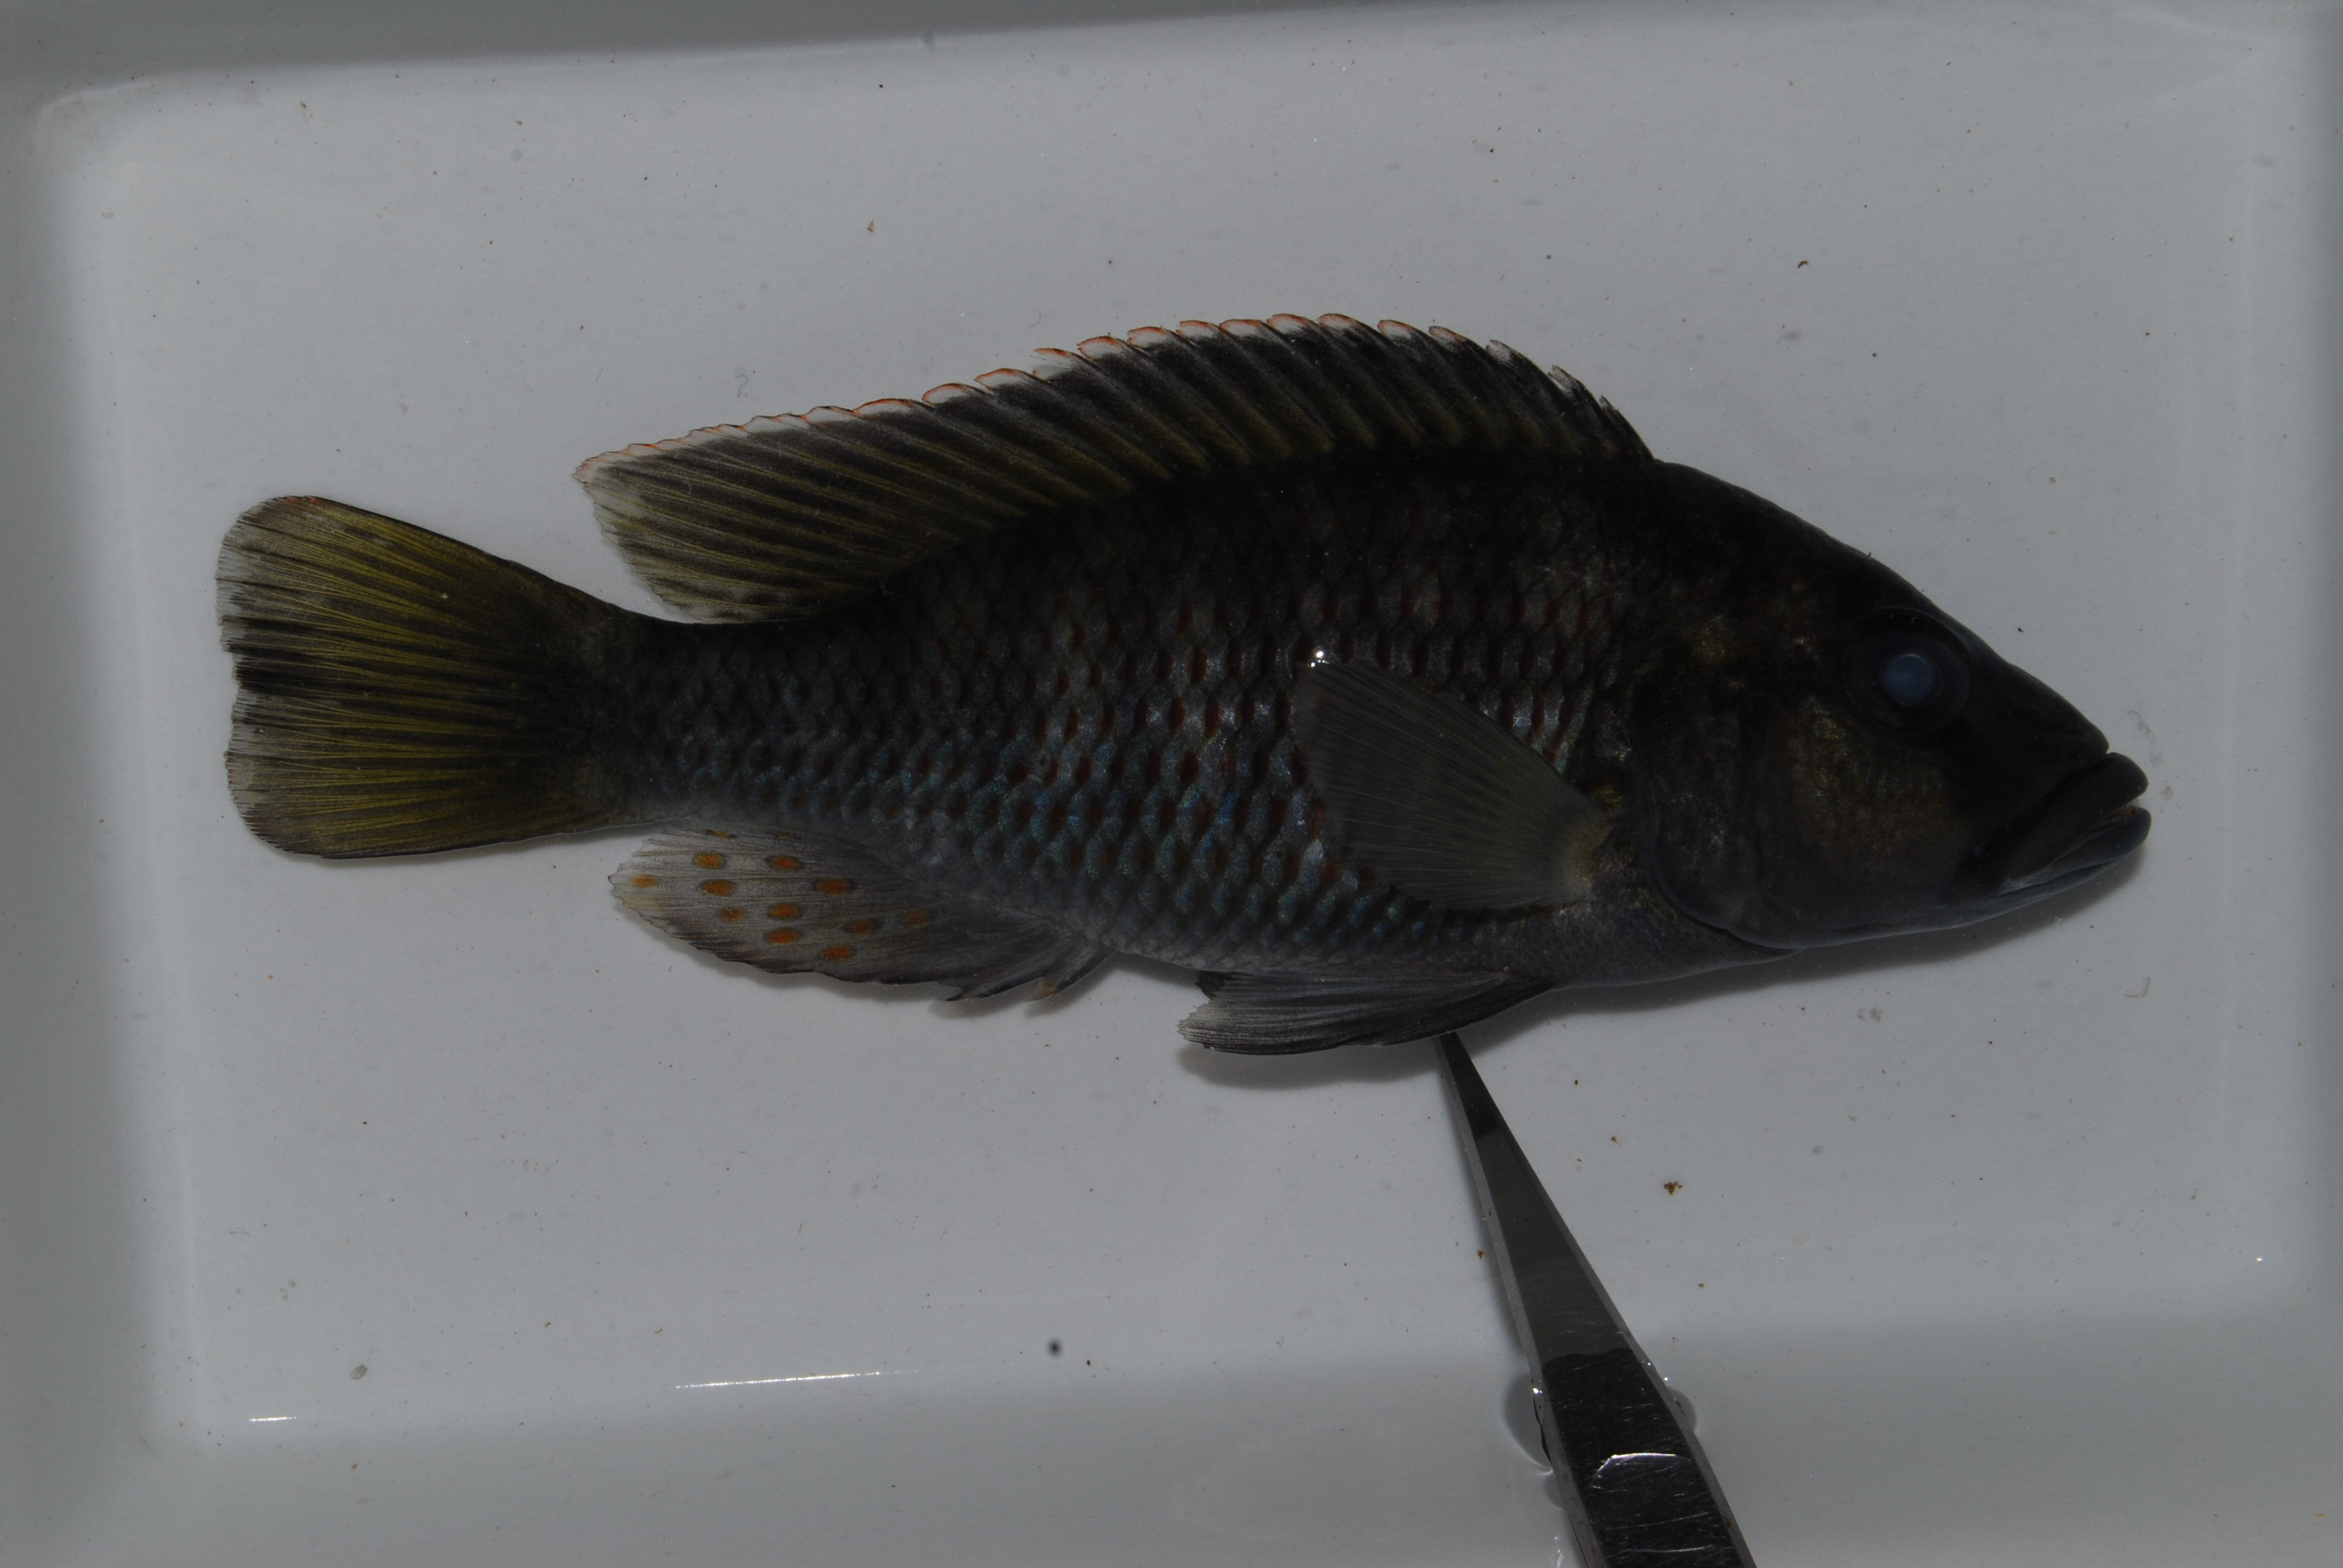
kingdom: Animalia
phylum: Chordata
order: Siluriformes
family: Mochokidae
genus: Synodontis
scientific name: Synodontis macrostoma
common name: Largemouth squeaker
